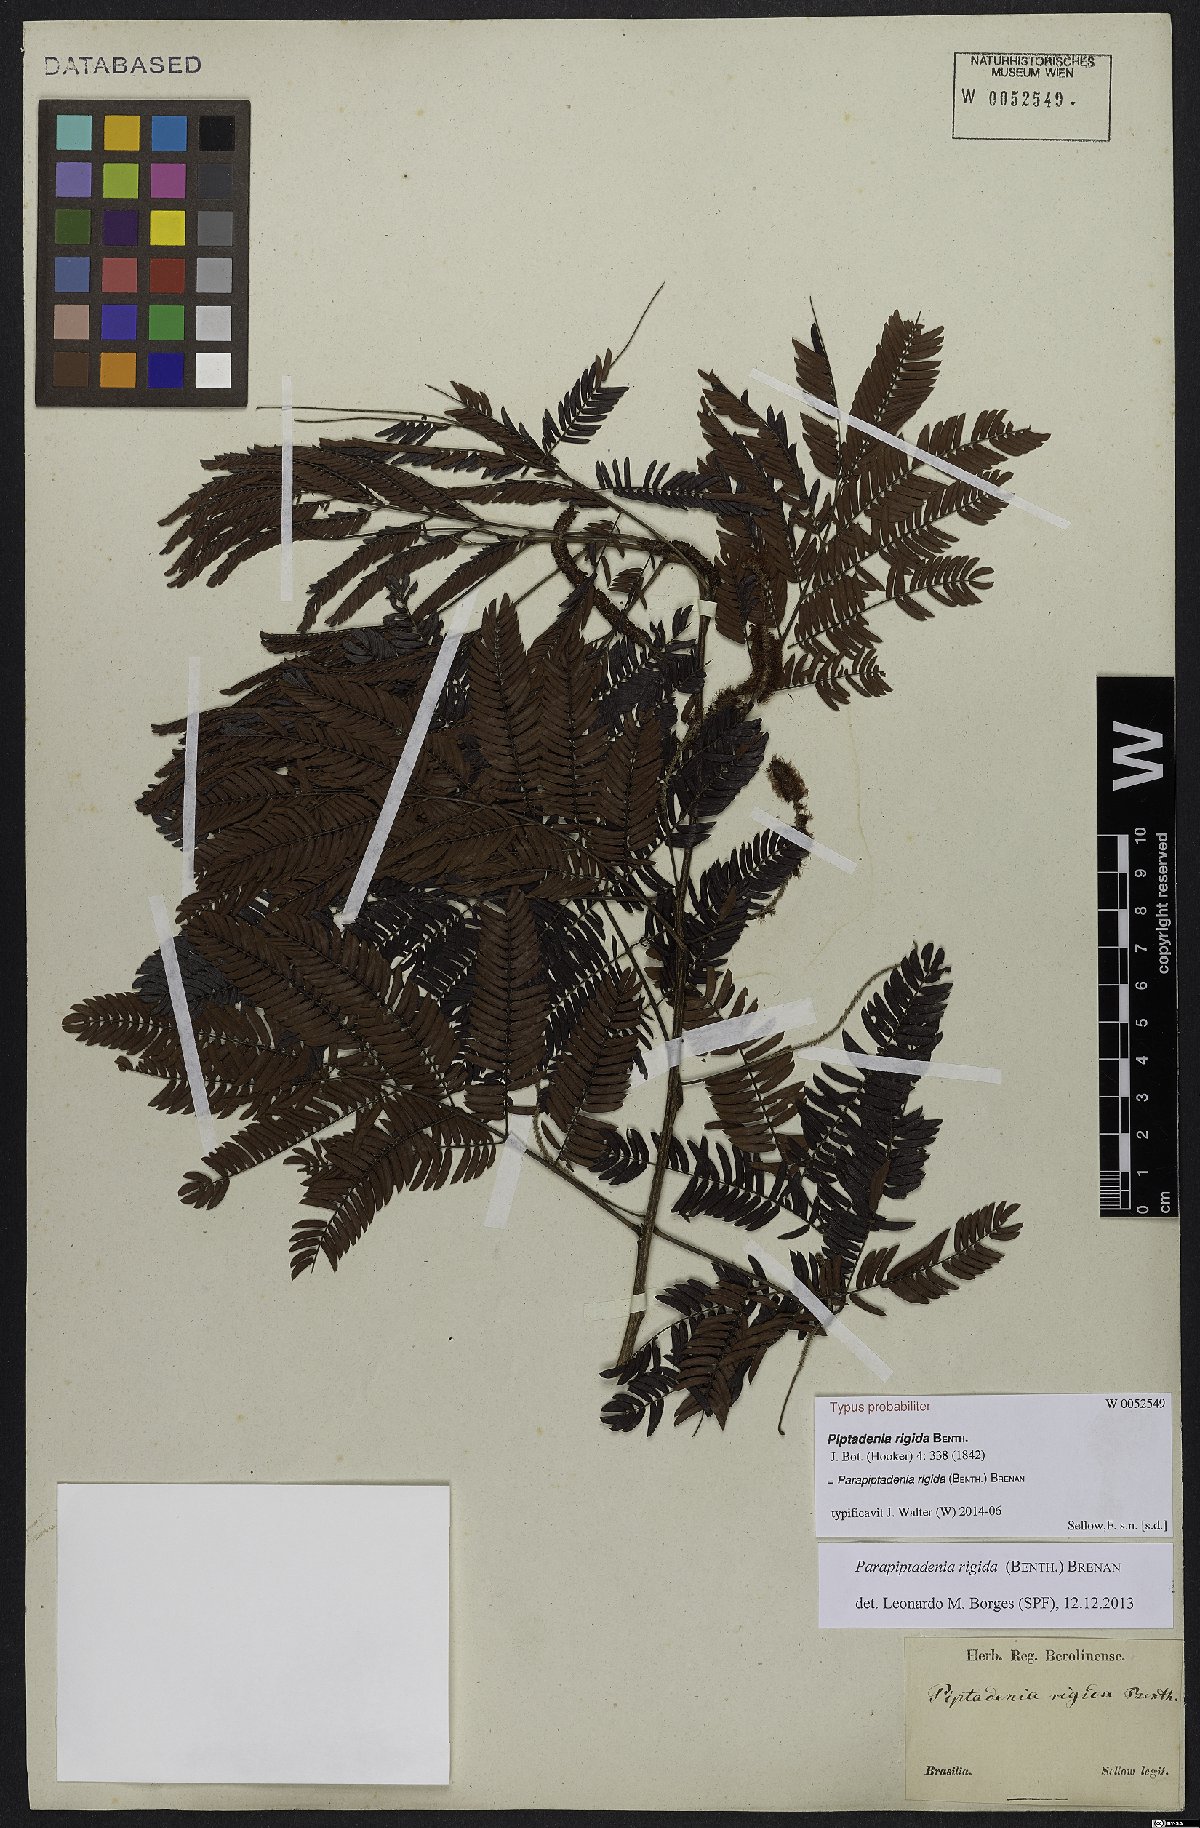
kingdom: Plantae
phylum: Tracheophyta
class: Magnoliopsida
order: Fabales
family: Fabaceae
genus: Parapiptadenia
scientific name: Parapiptadenia rigida
